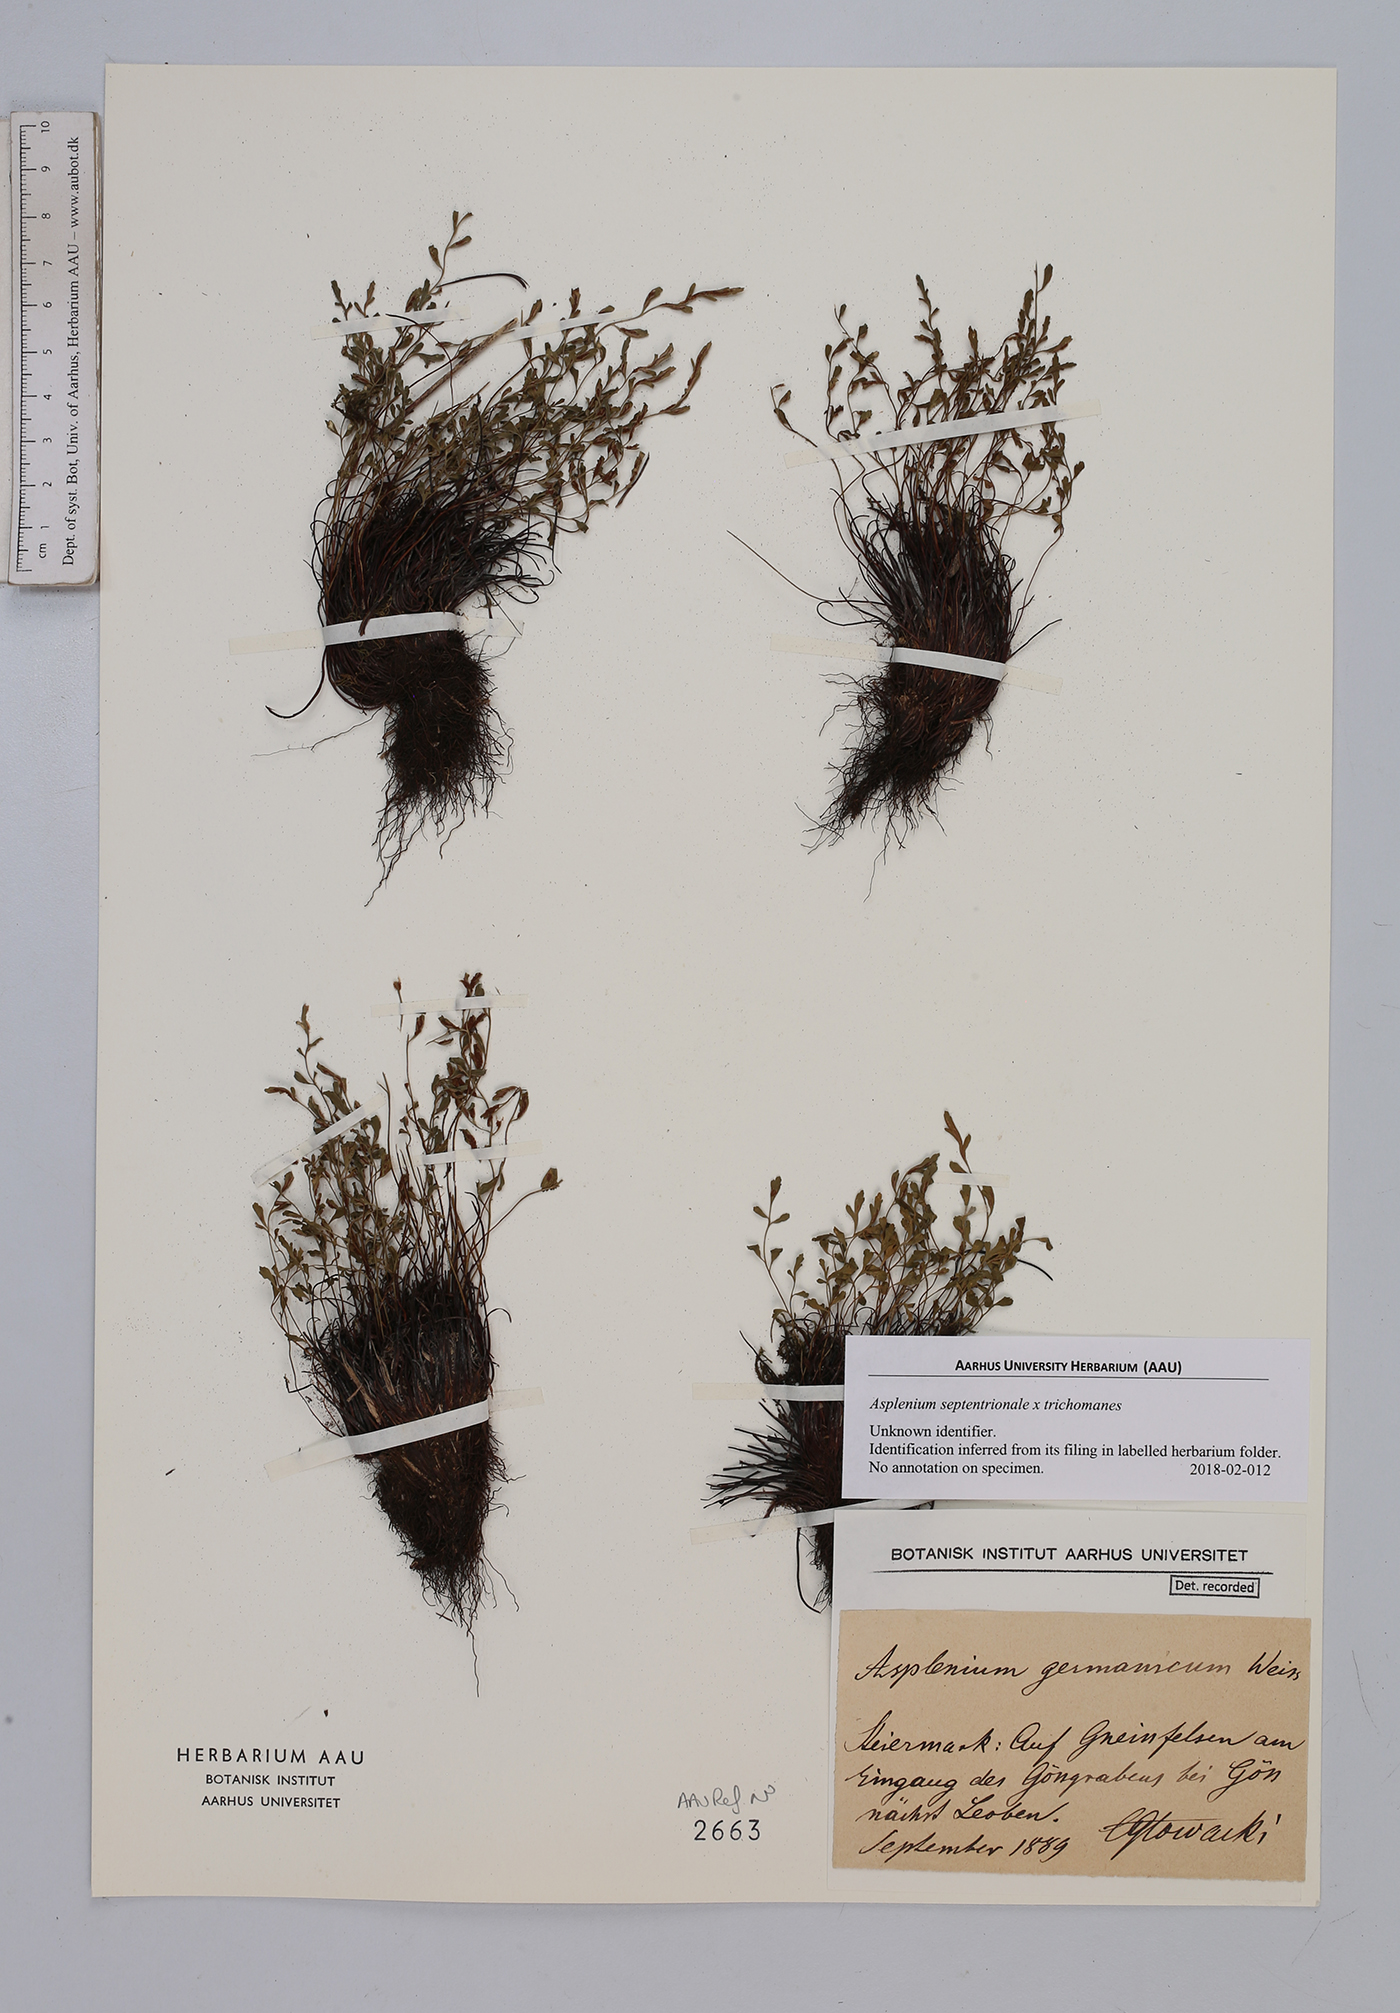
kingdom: Plantae
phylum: Tracheophyta
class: Polypodiopsida
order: Polypodiales
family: Aspleniaceae
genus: Asplenium
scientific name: Asplenium
